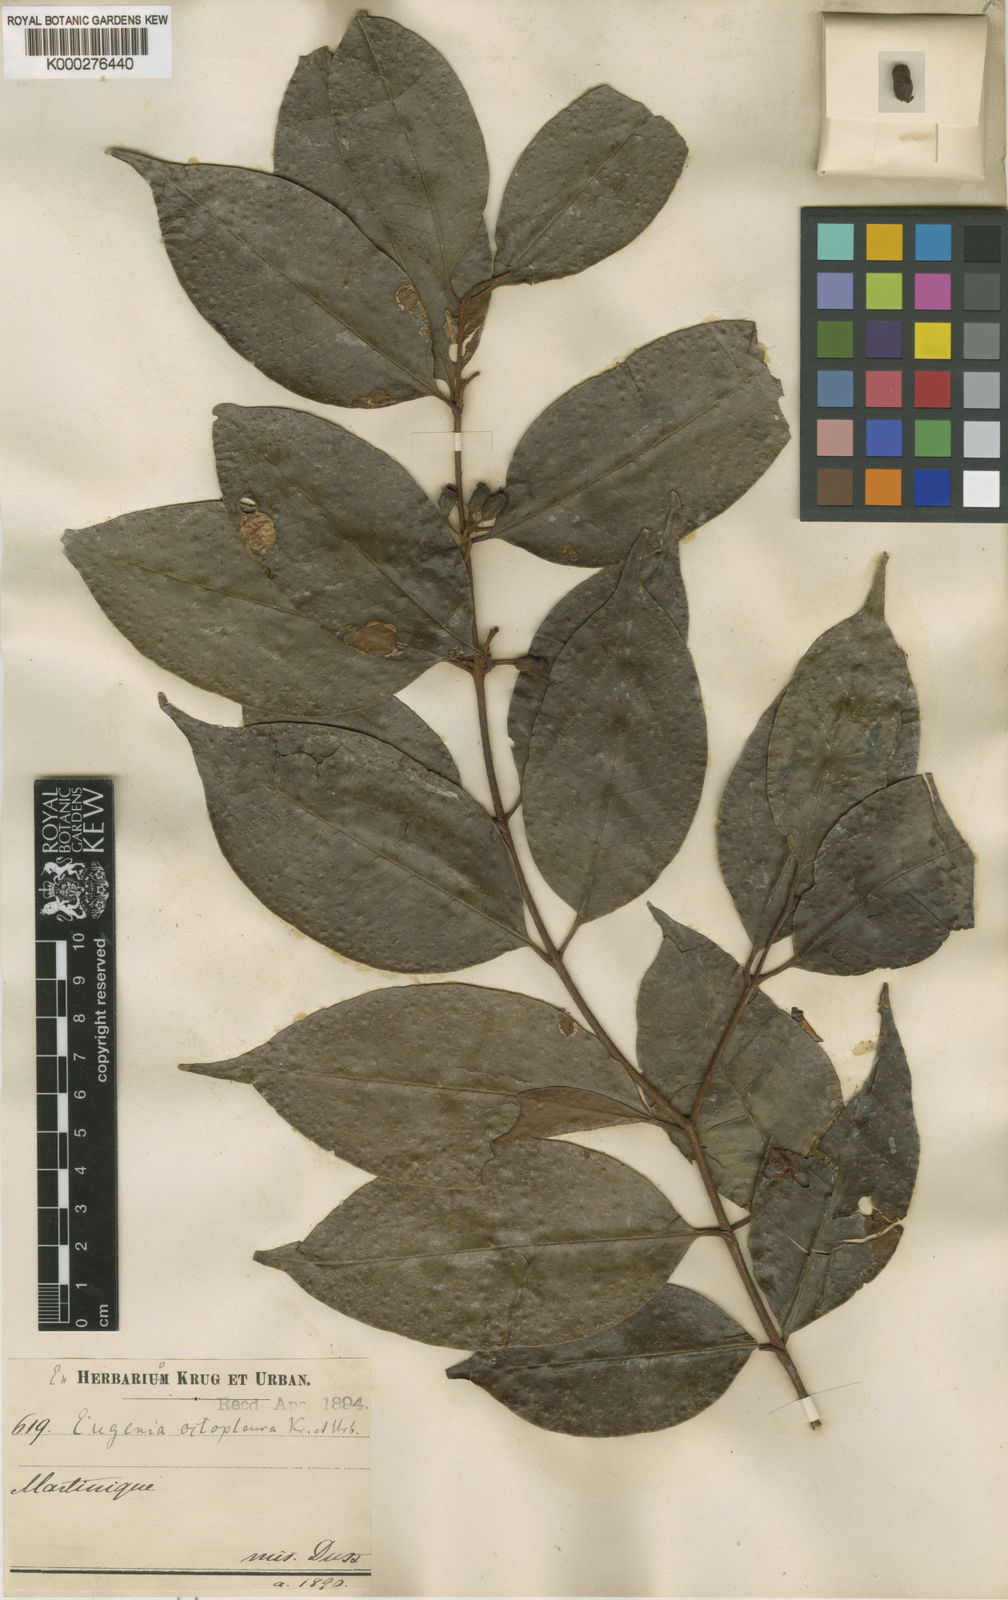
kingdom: Plantae
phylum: Tracheophyta
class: Magnoliopsida
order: Myrtales
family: Myrtaceae
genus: Eugenia
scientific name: Eugenia octopleura
